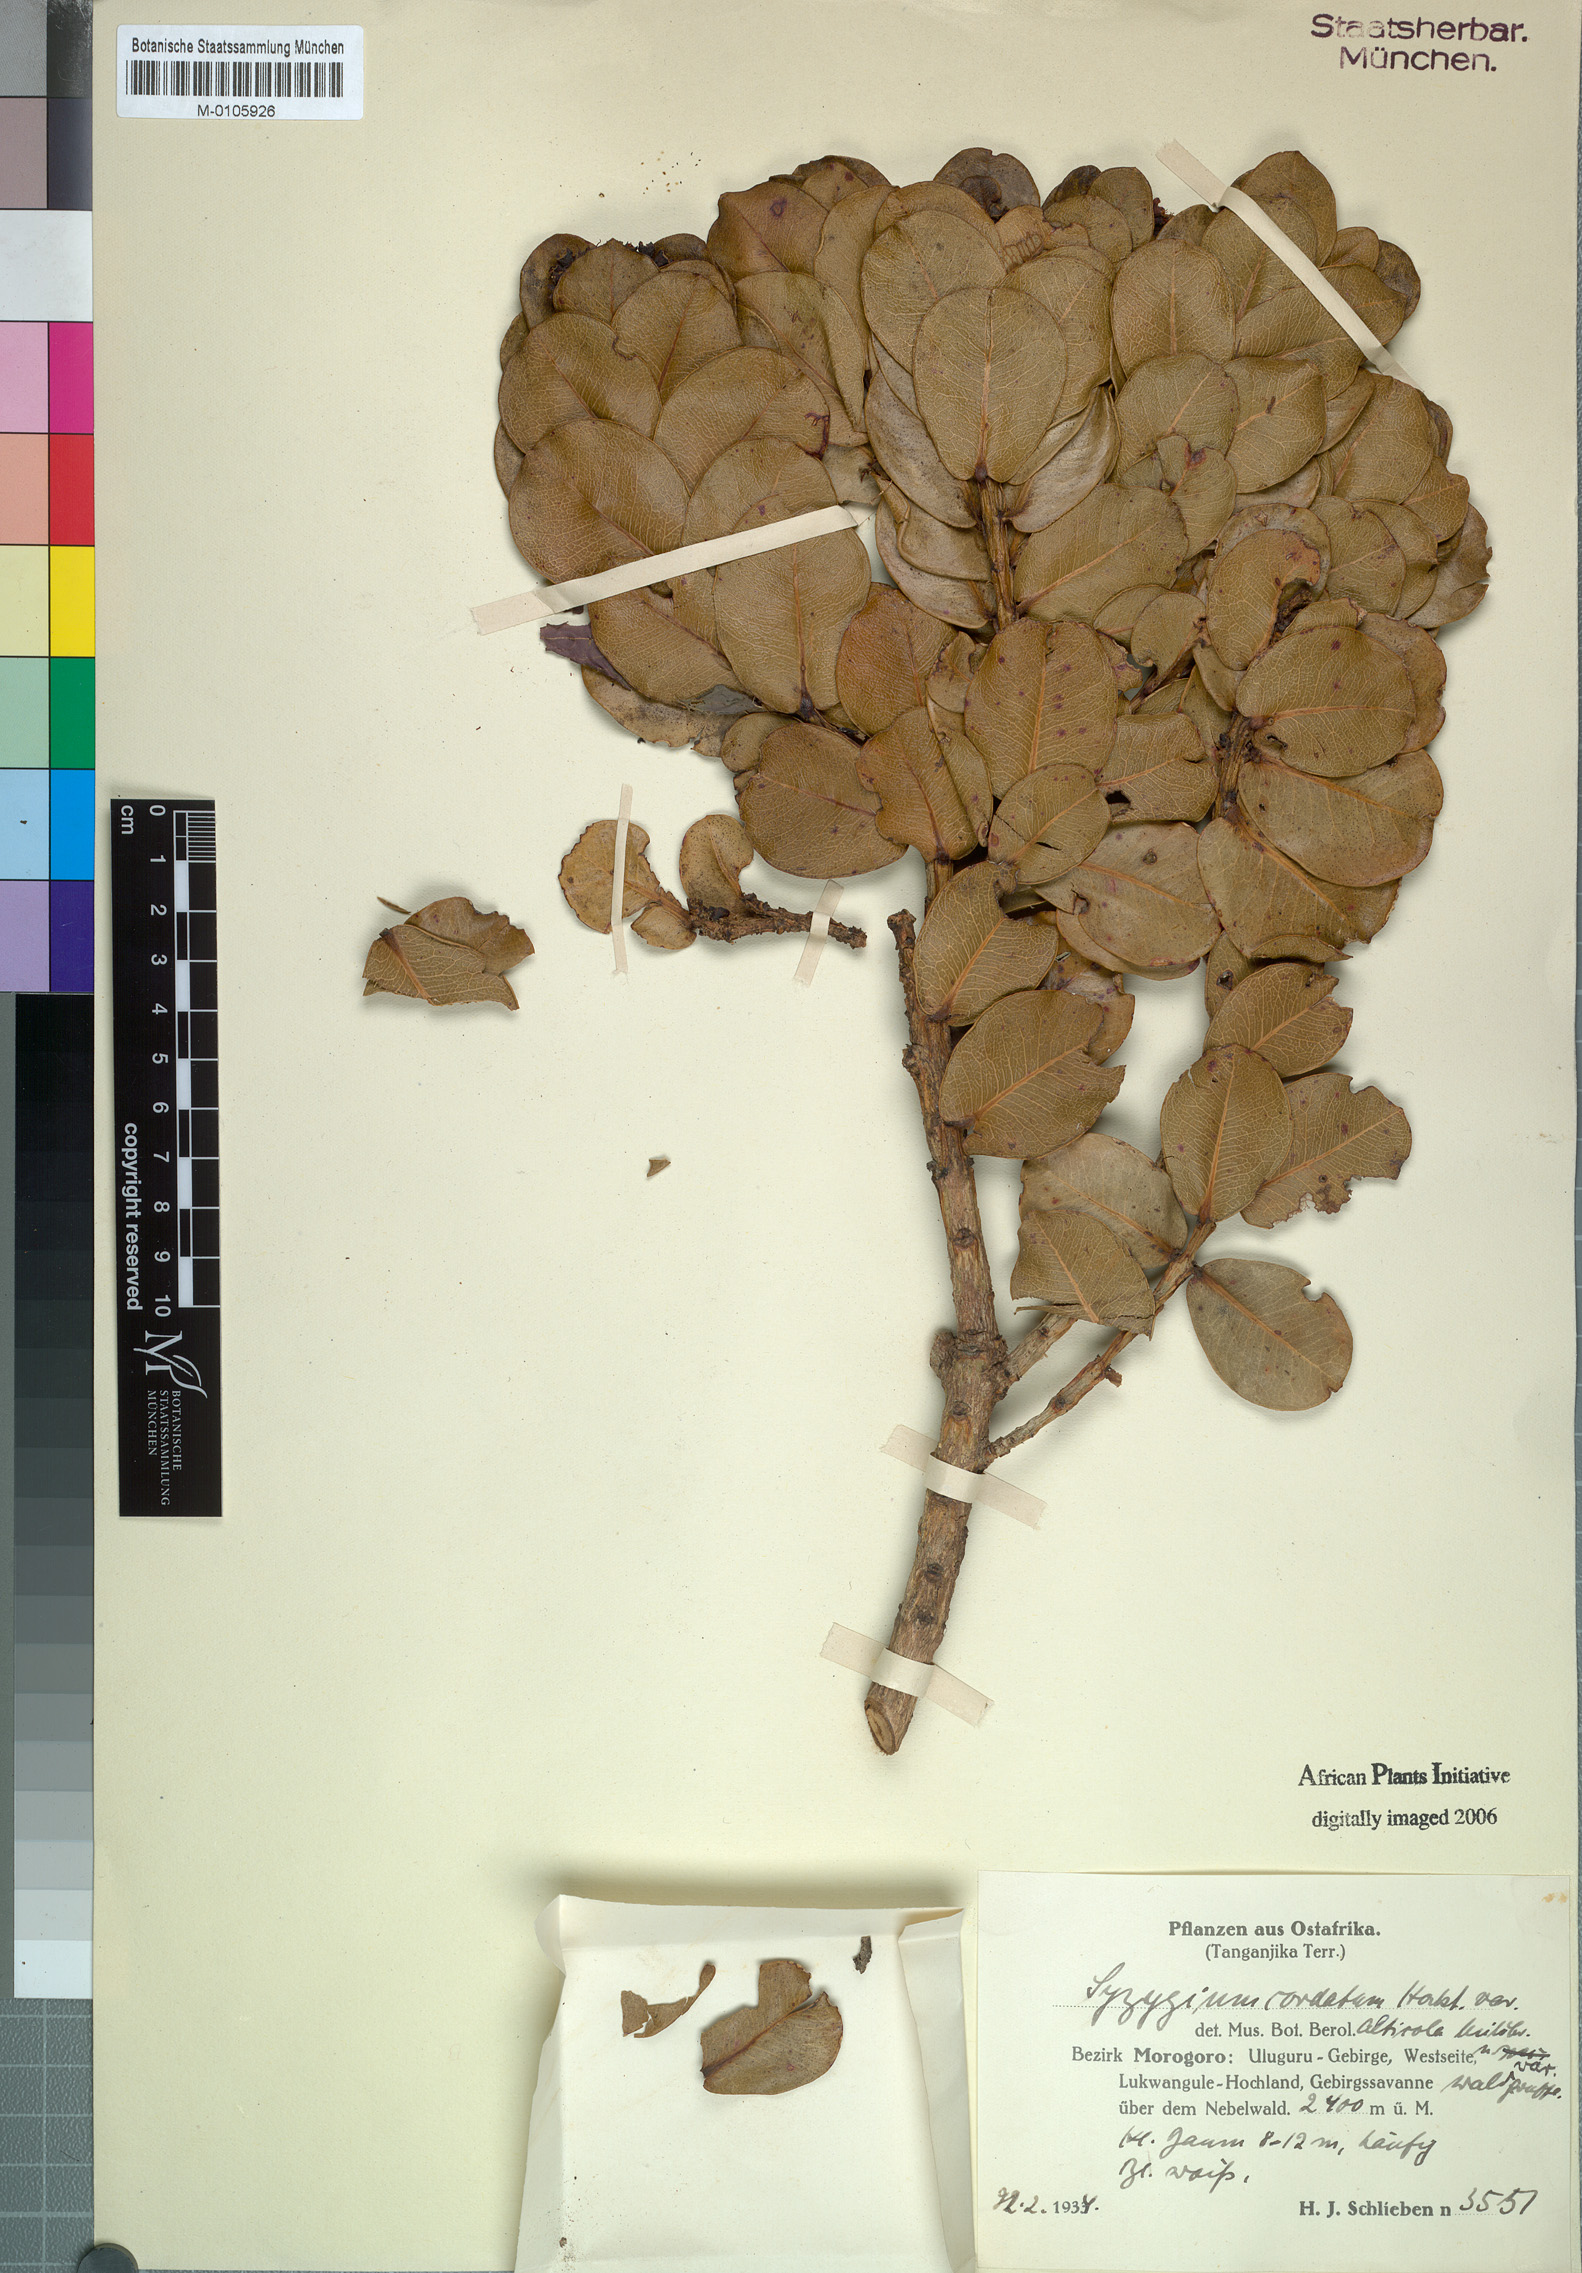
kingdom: Plantae
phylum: Tracheophyta
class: Magnoliopsida
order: Myrtales
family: Myrtaceae
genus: Syzygium
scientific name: Syzygium cordatum
